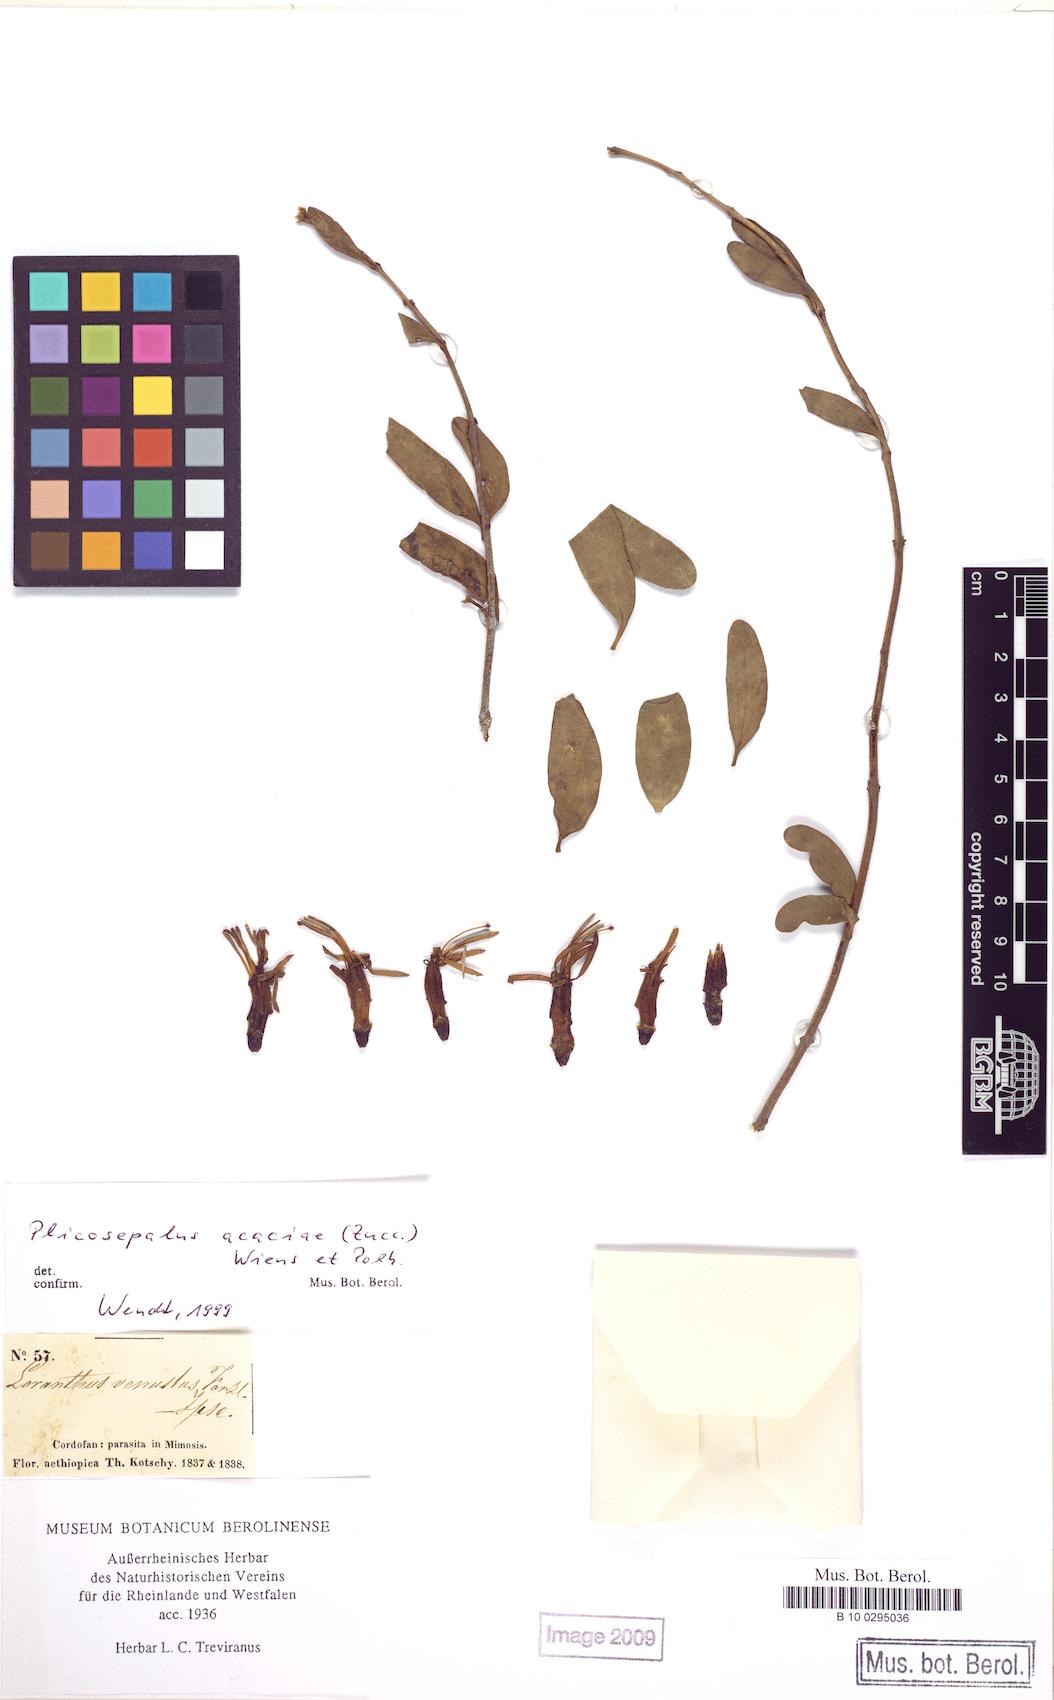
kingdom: Plantae
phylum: Tracheophyta
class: Magnoliopsida
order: Santalales
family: Loranthaceae
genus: Plicosepalus
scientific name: Plicosepalus acaciae
